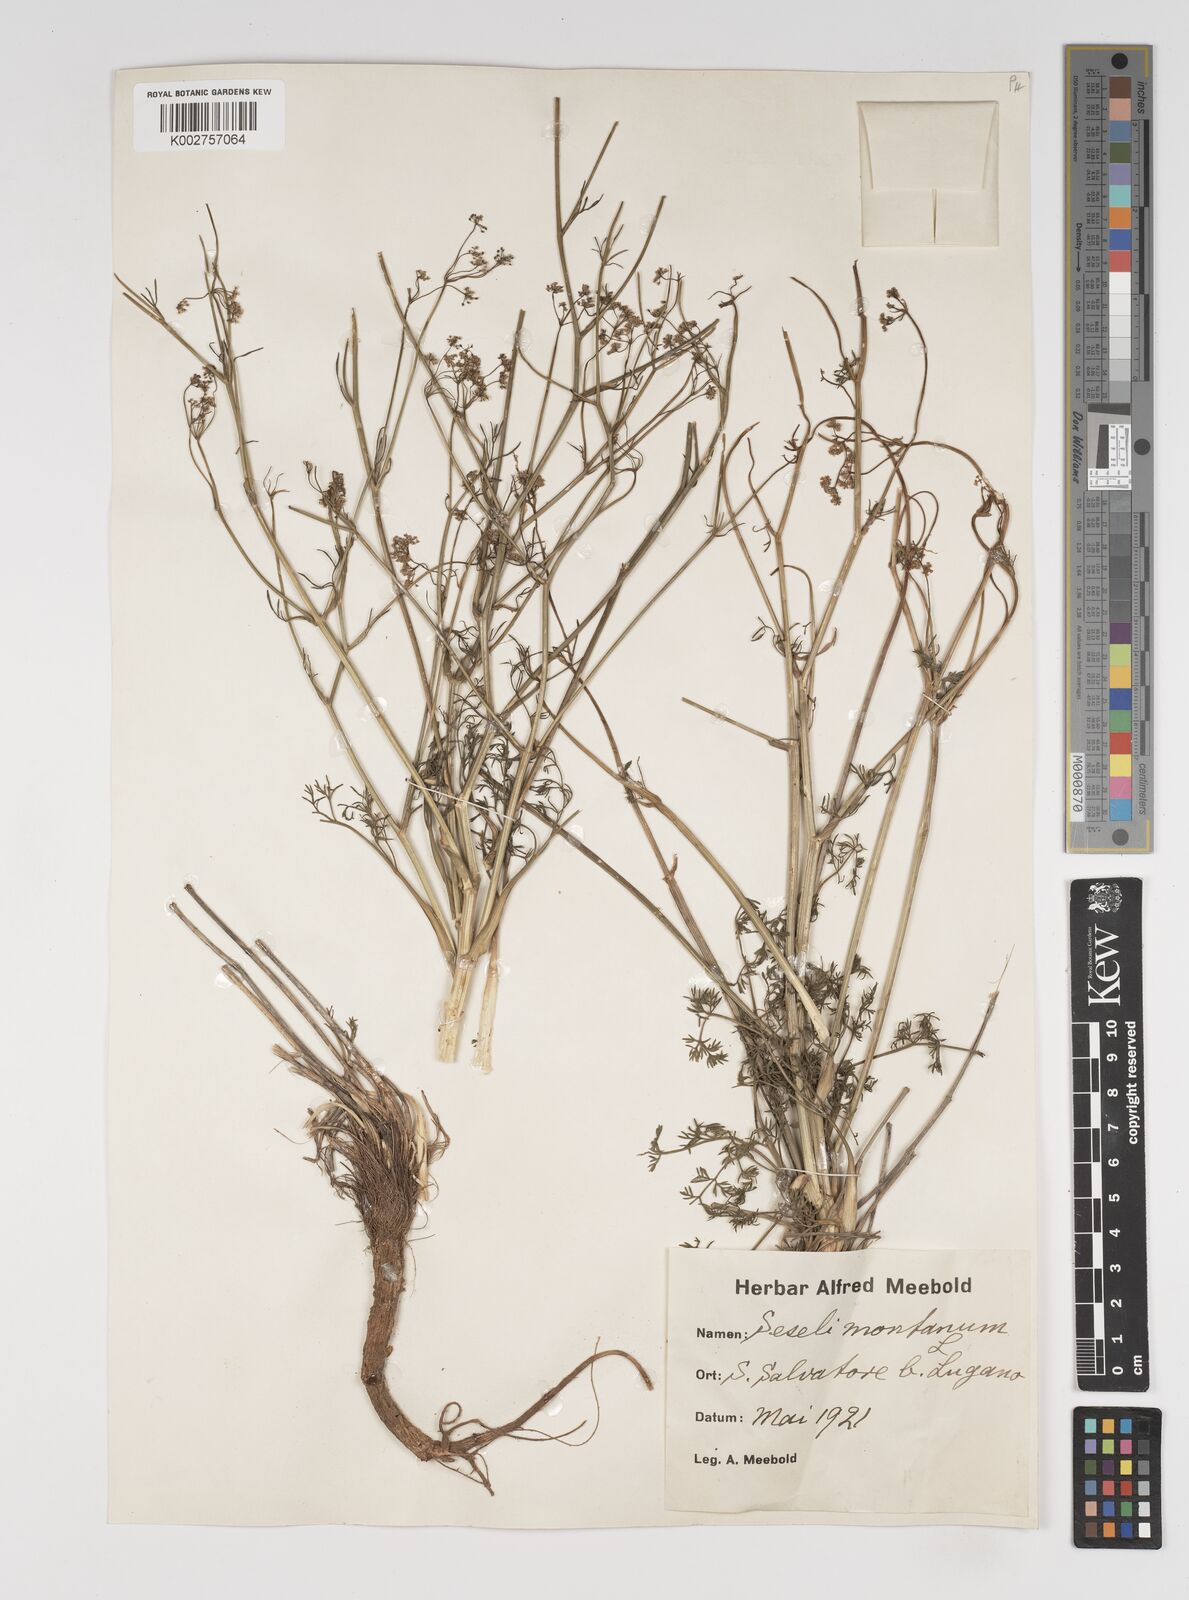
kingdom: Plantae
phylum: Tracheophyta
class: Magnoliopsida
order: Apiales
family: Apiaceae
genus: Seseli
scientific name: Seseli montanum
